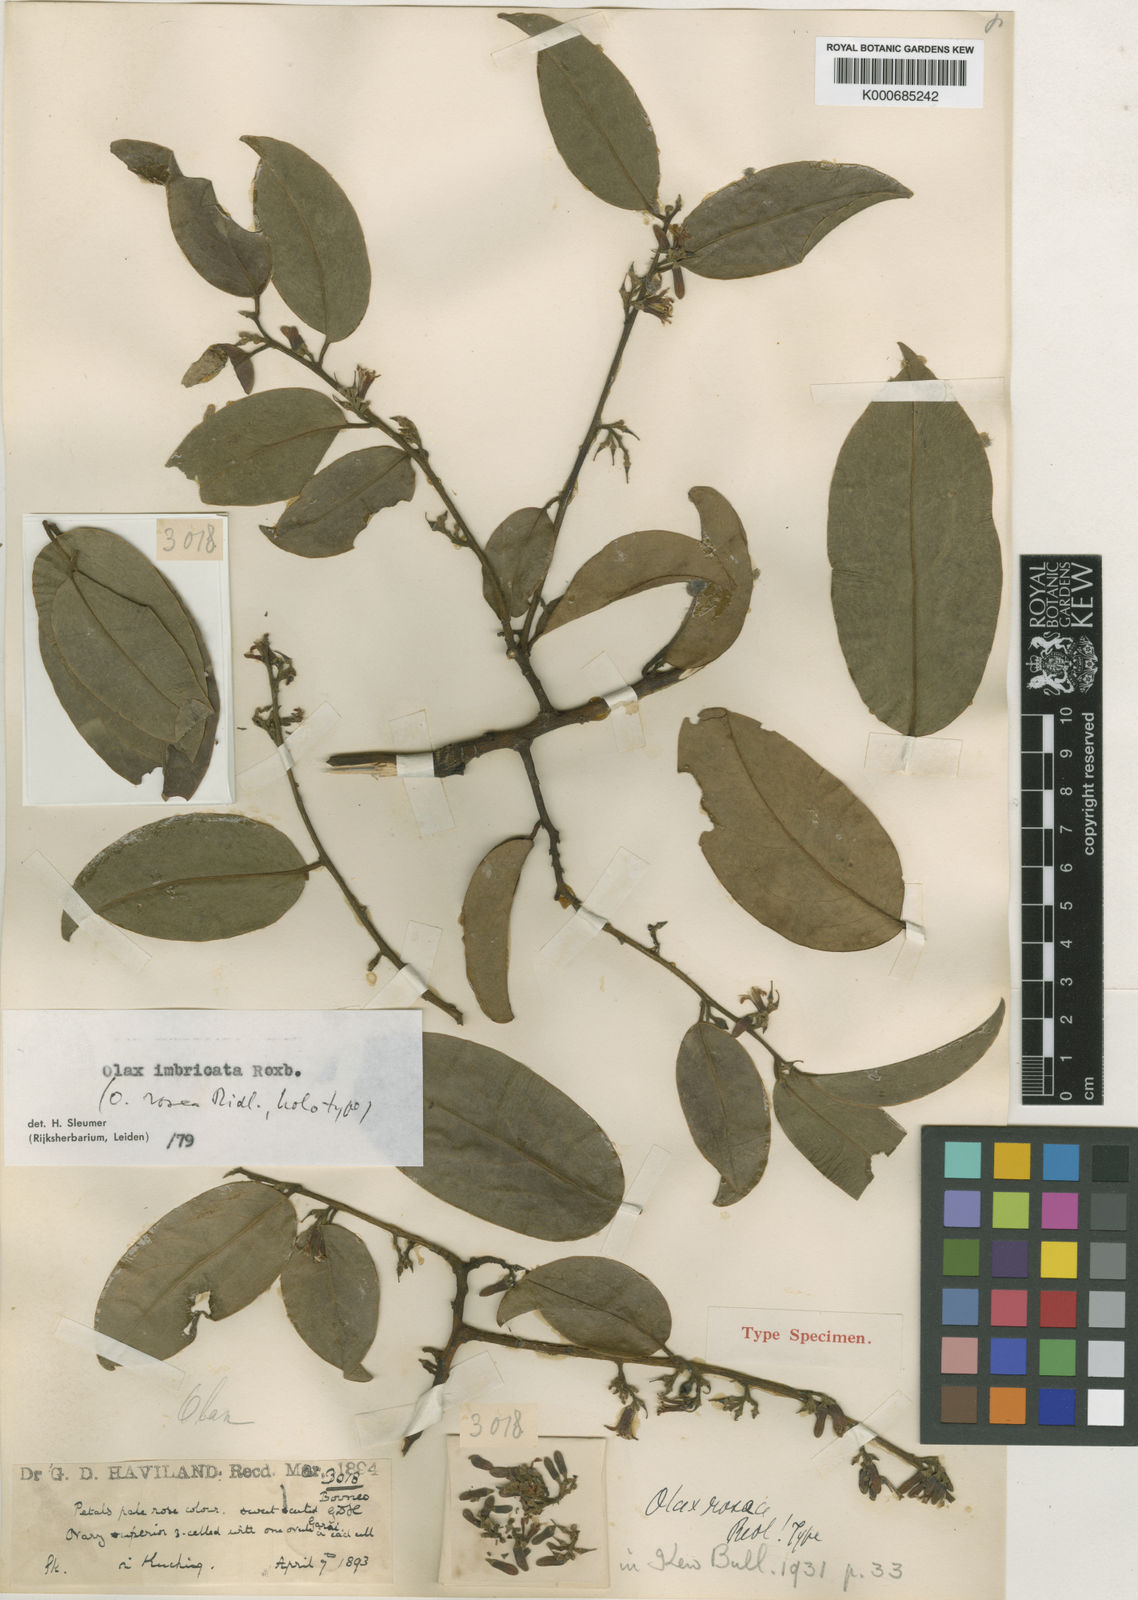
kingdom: Plantae
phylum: Tracheophyta
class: Magnoliopsida
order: Santalales
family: Olacaceae
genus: Olax
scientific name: Olax imbricata
